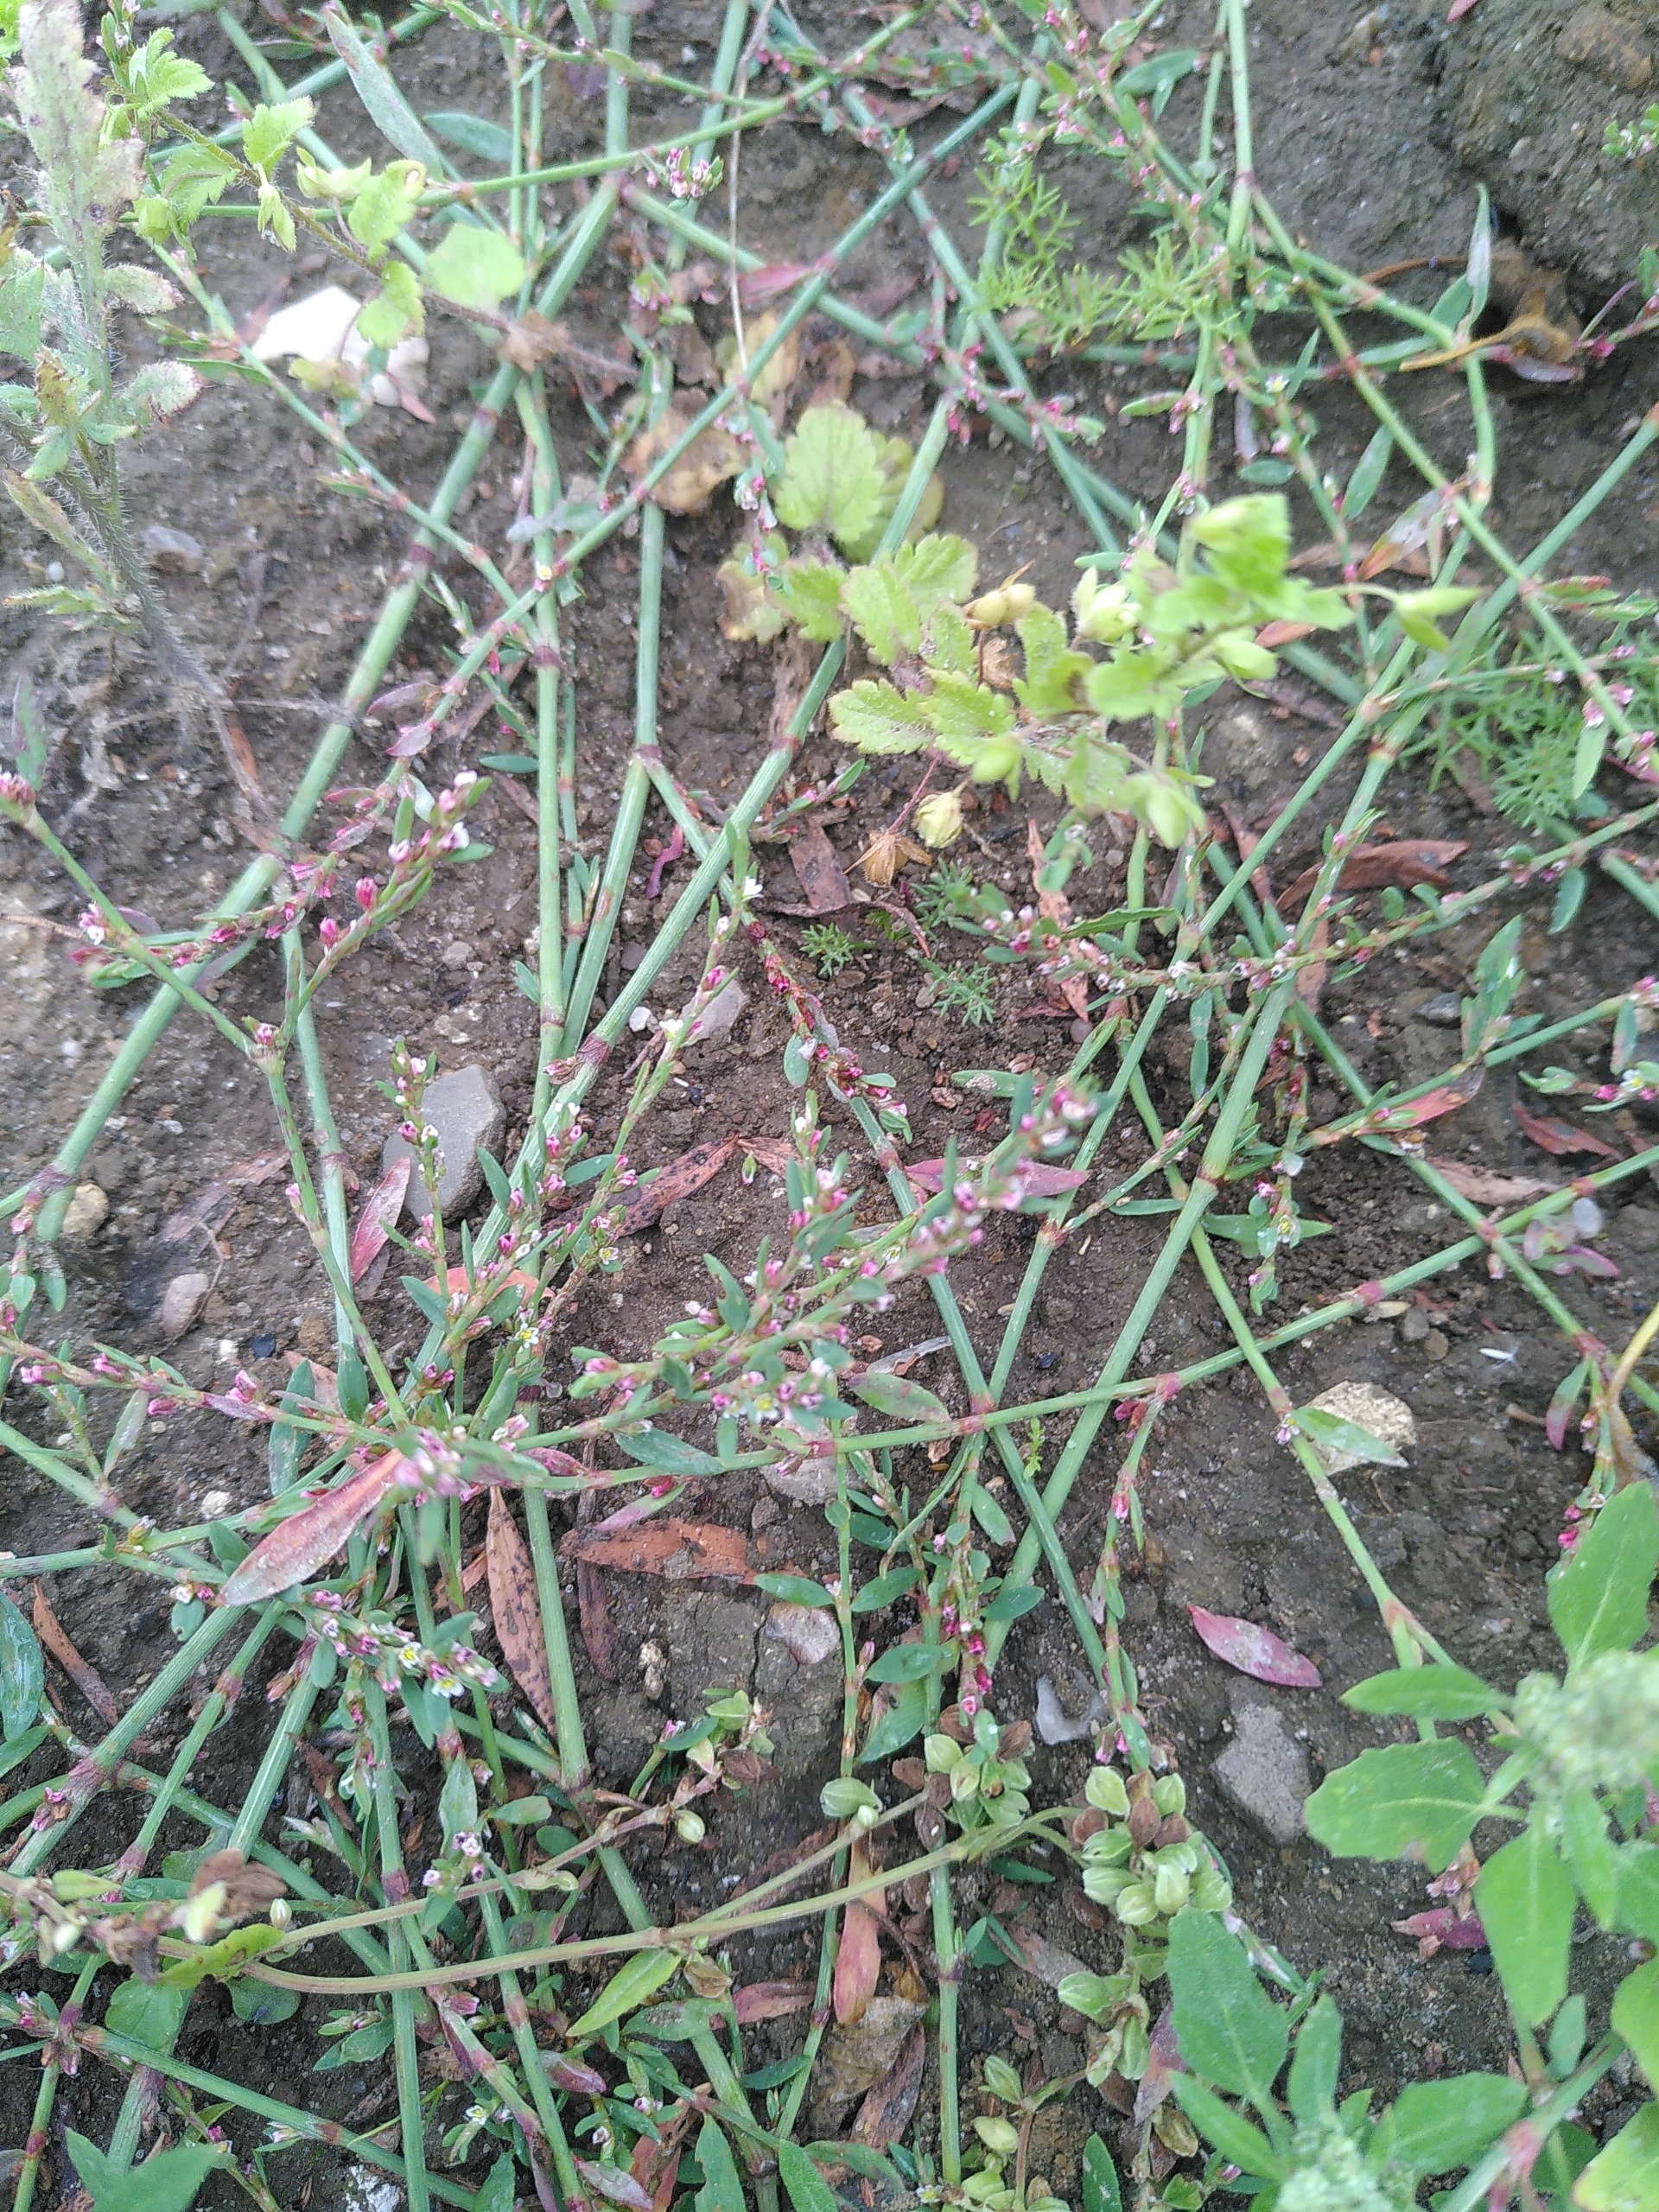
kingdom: Plantae
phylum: Tracheophyta
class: Magnoliopsida
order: Caryophyllales
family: Polygonaceae
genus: Polygonum
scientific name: Polygonum arenastrum
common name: Liggende vej-pileurt
